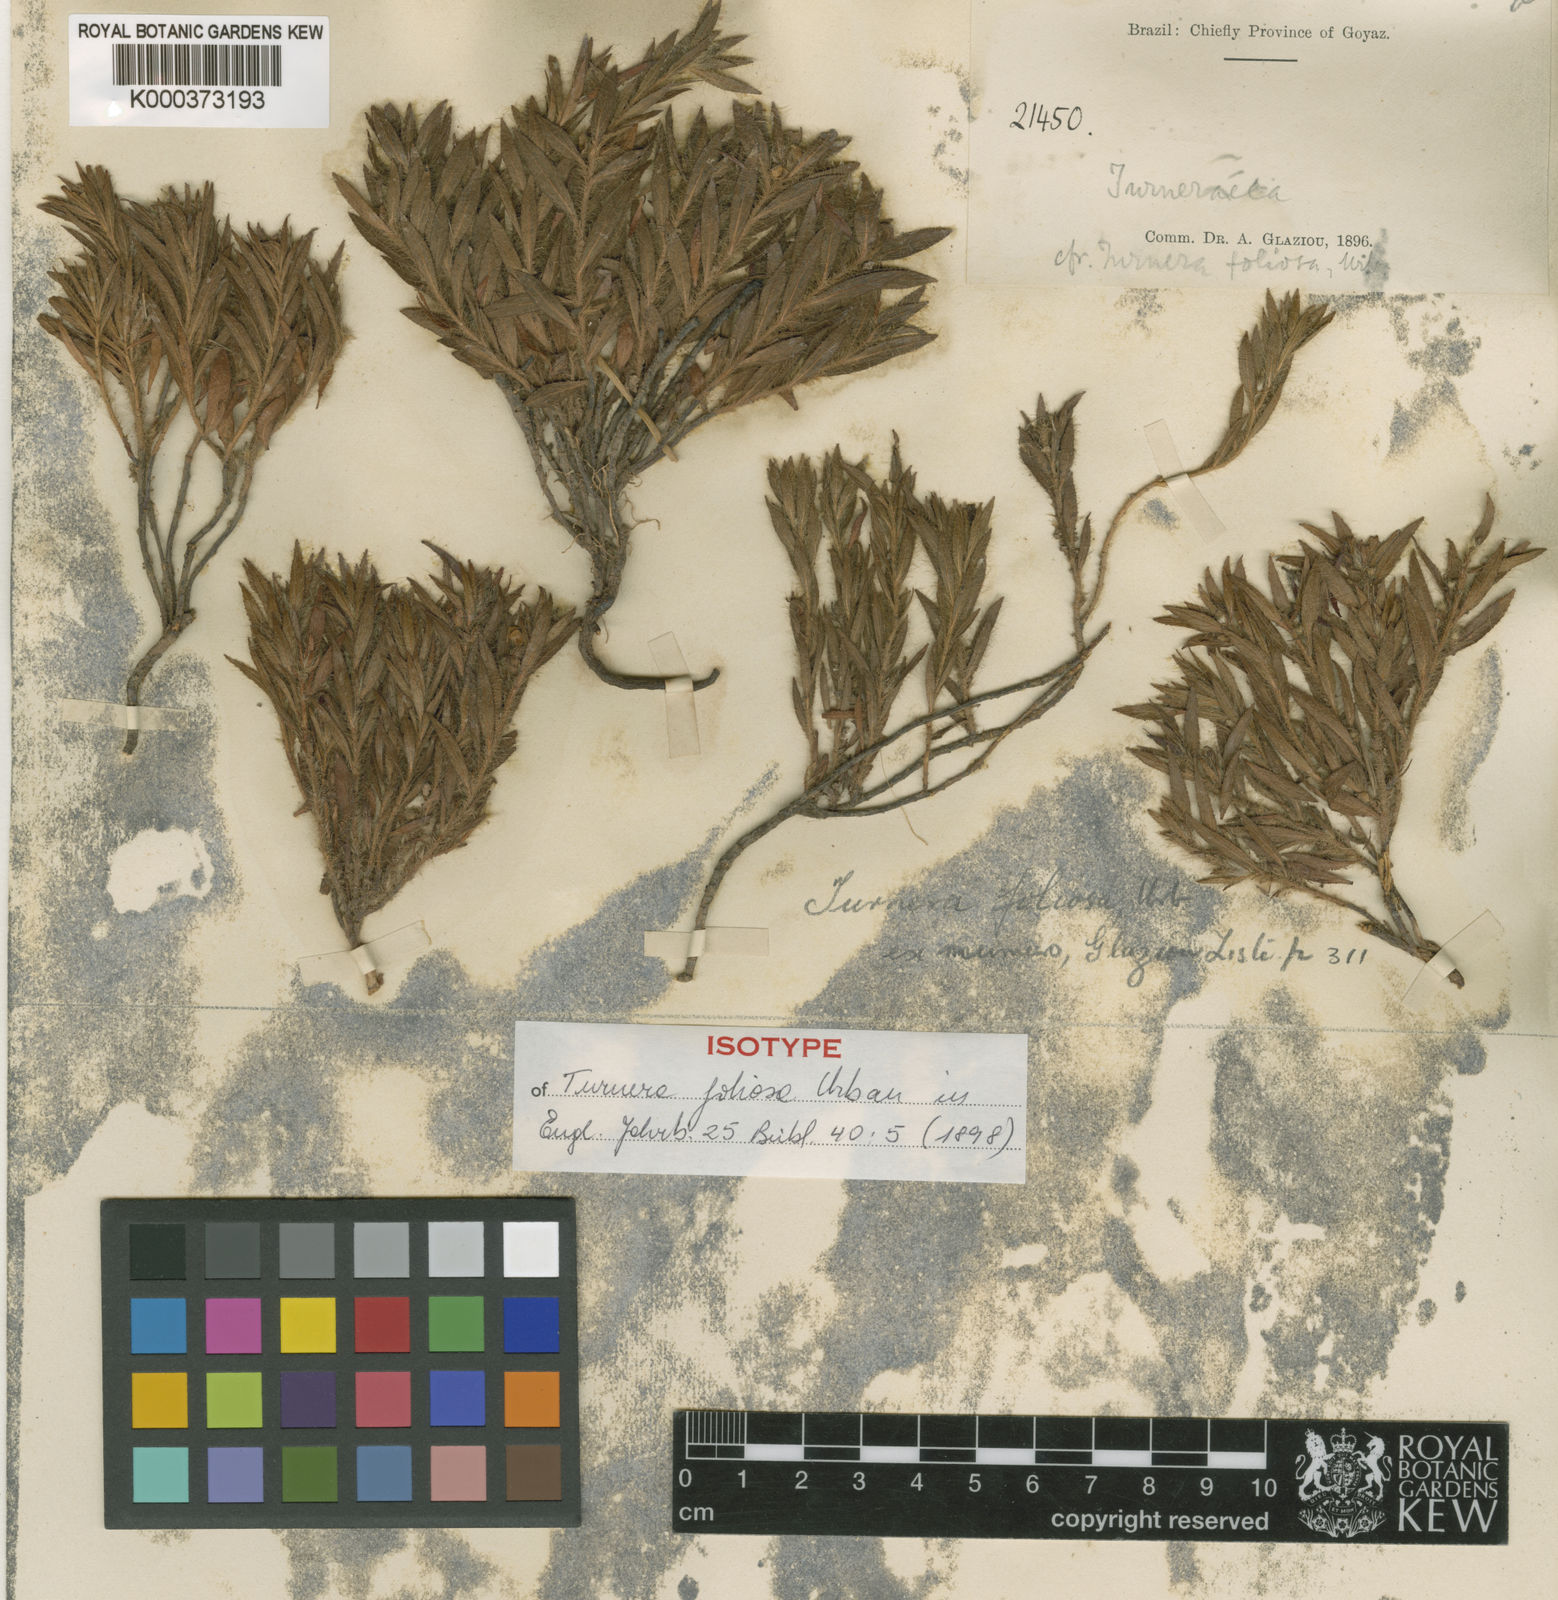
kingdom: Plantae
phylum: Tracheophyta
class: Magnoliopsida
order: Malpighiales
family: Turneraceae
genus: Turnera
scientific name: Turnera foliosa
